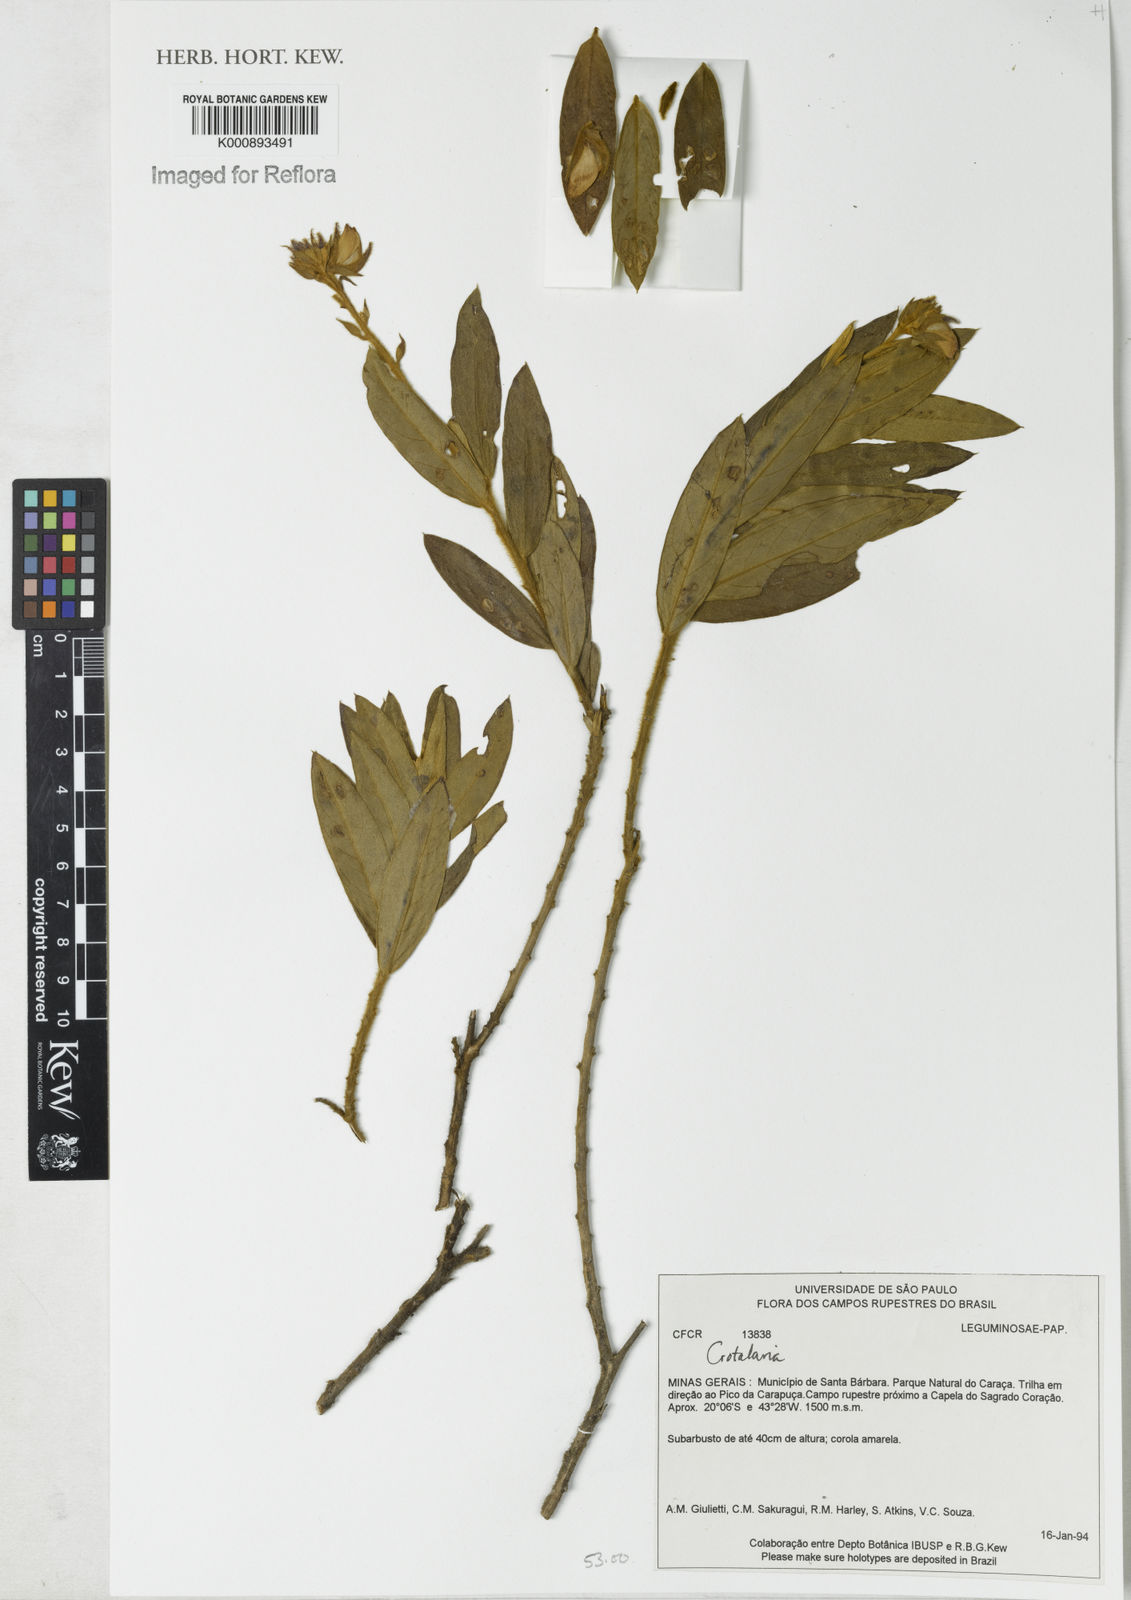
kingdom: Plantae
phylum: Tracheophyta
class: Magnoliopsida
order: Fabales
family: Fabaceae
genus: Crotalaria
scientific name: Crotalaria martiana
